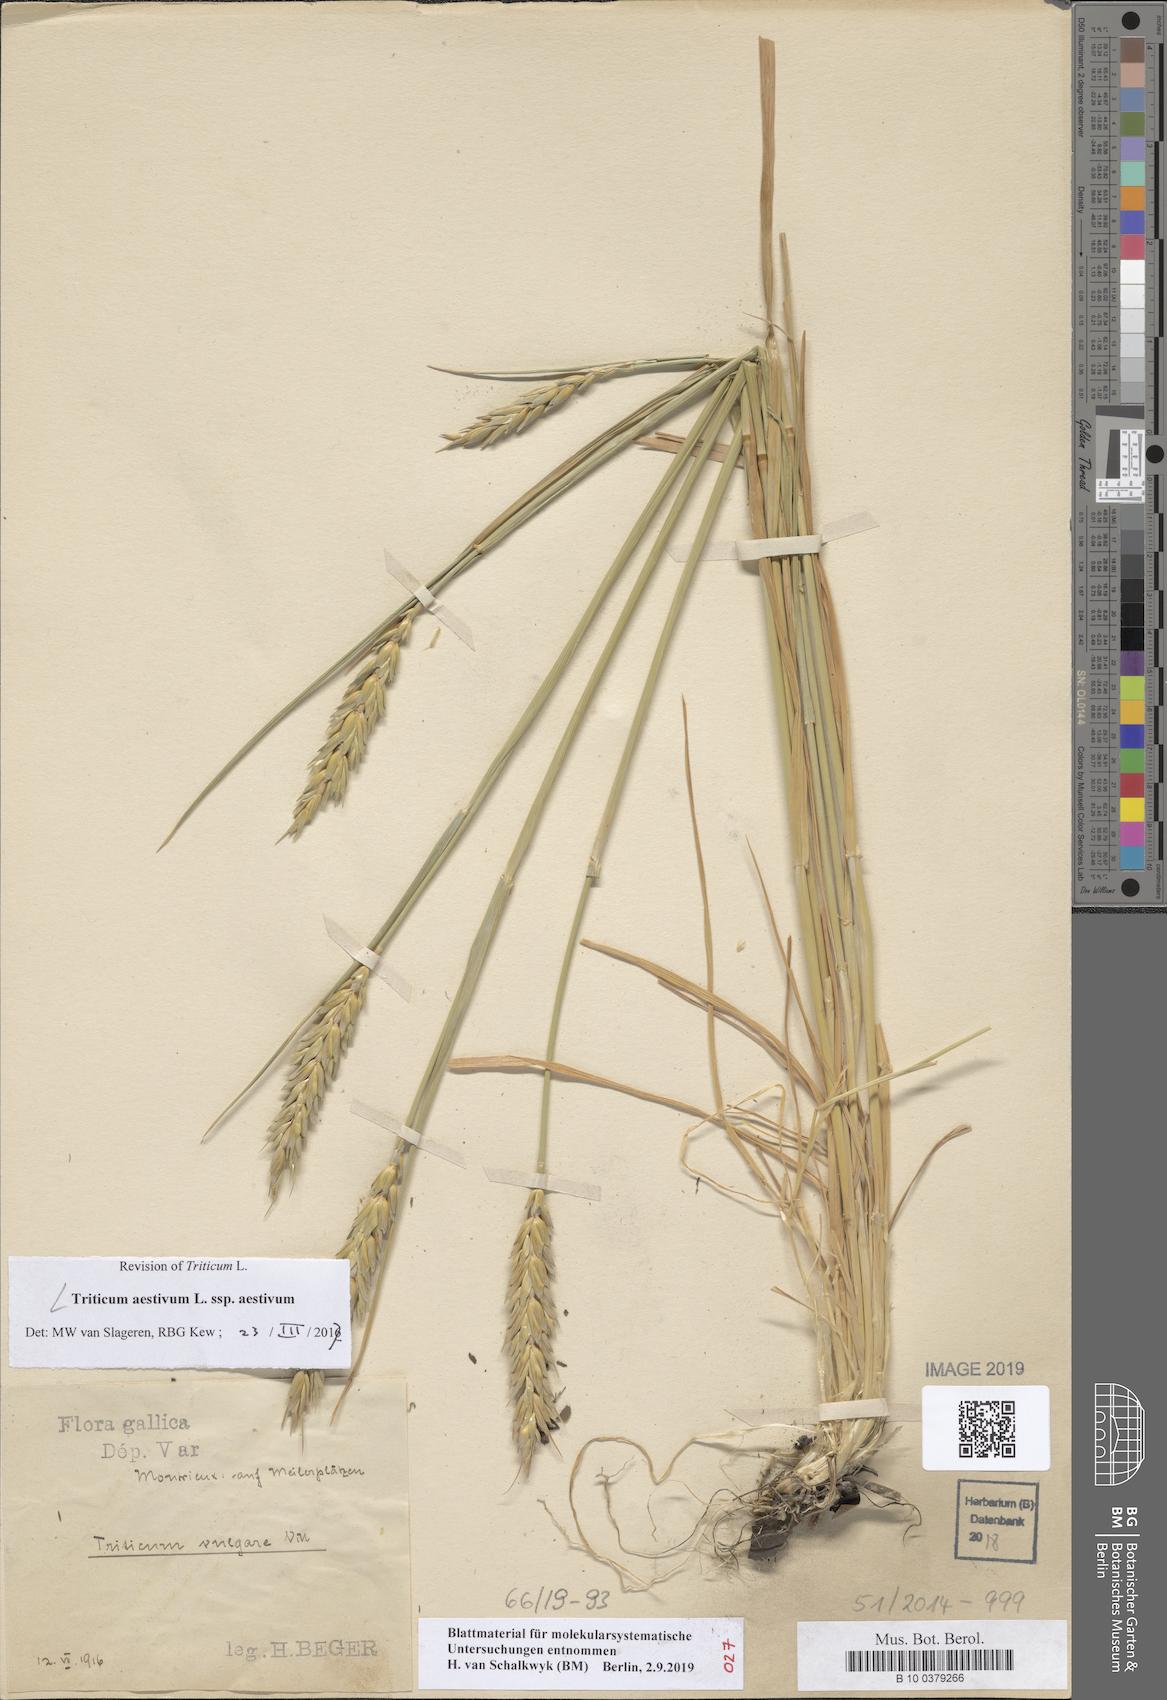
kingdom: Plantae
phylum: Tracheophyta
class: Liliopsida
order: Poales
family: Poaceae
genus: Triticum
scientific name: Triticum aestivum
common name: Common wheat
